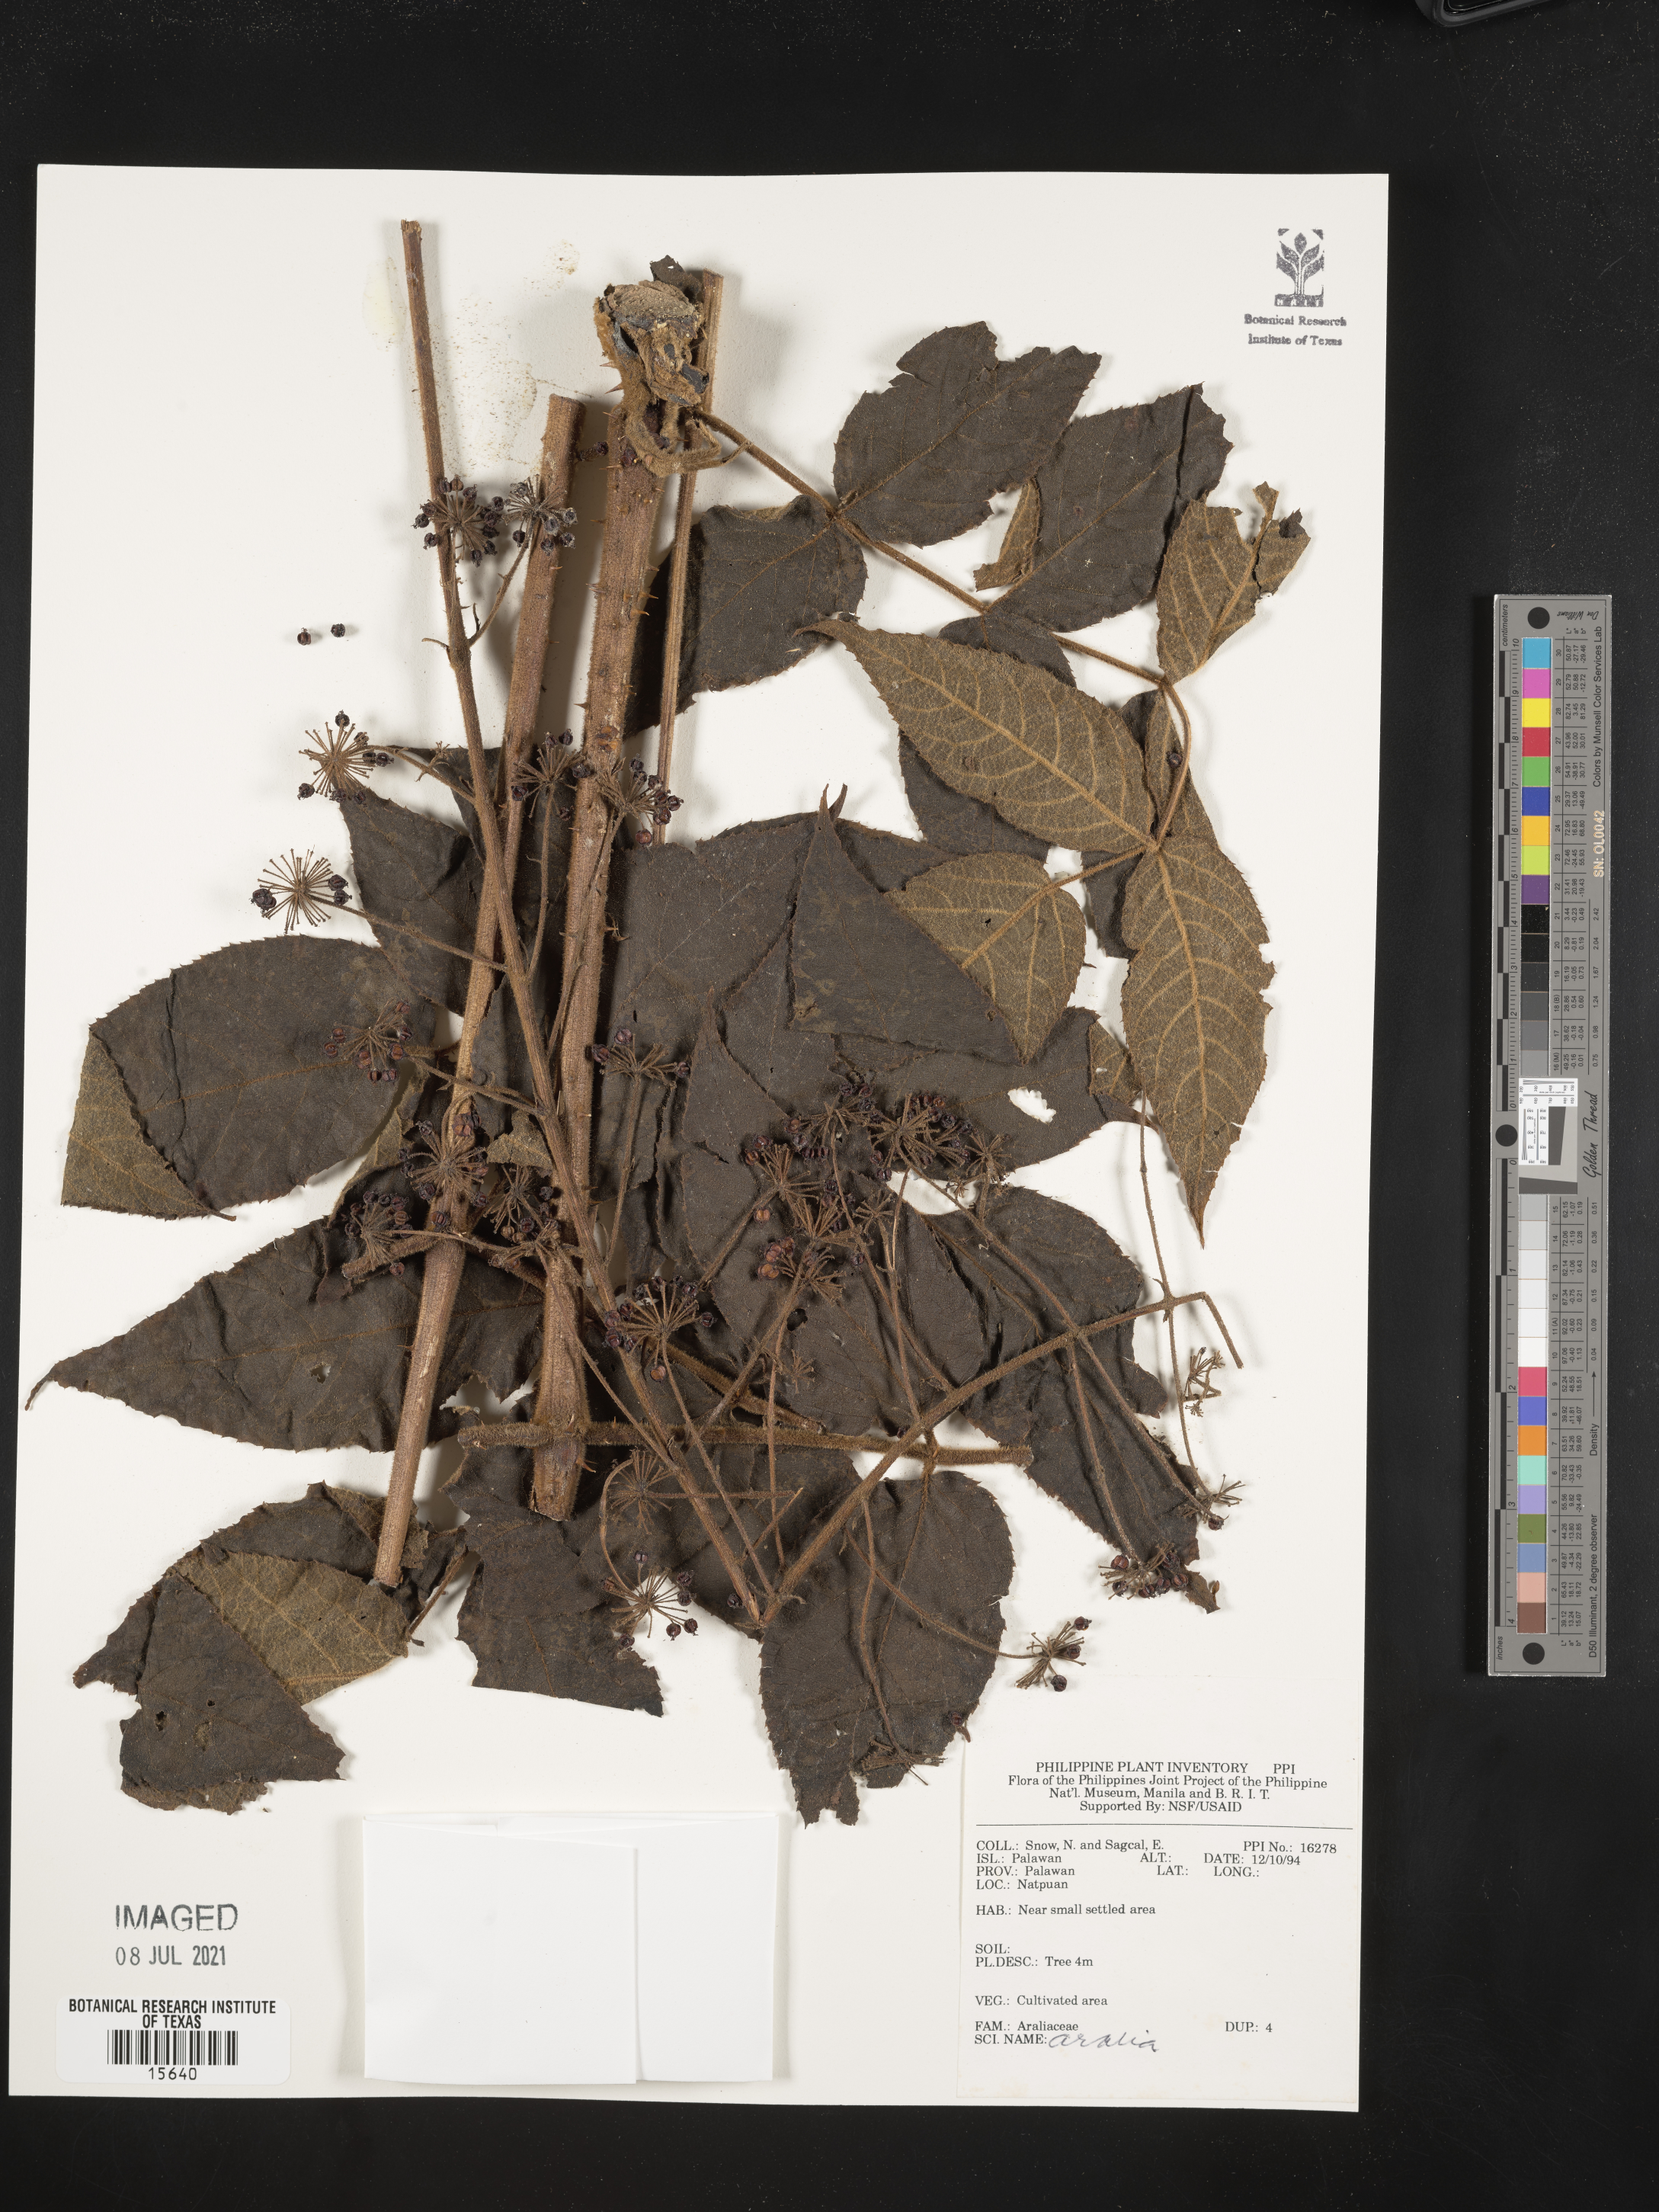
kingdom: Plantae
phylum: Tracheophyta
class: Magnoliopsida
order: Apiales
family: Araliaceae
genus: Aralia
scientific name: Aralia
